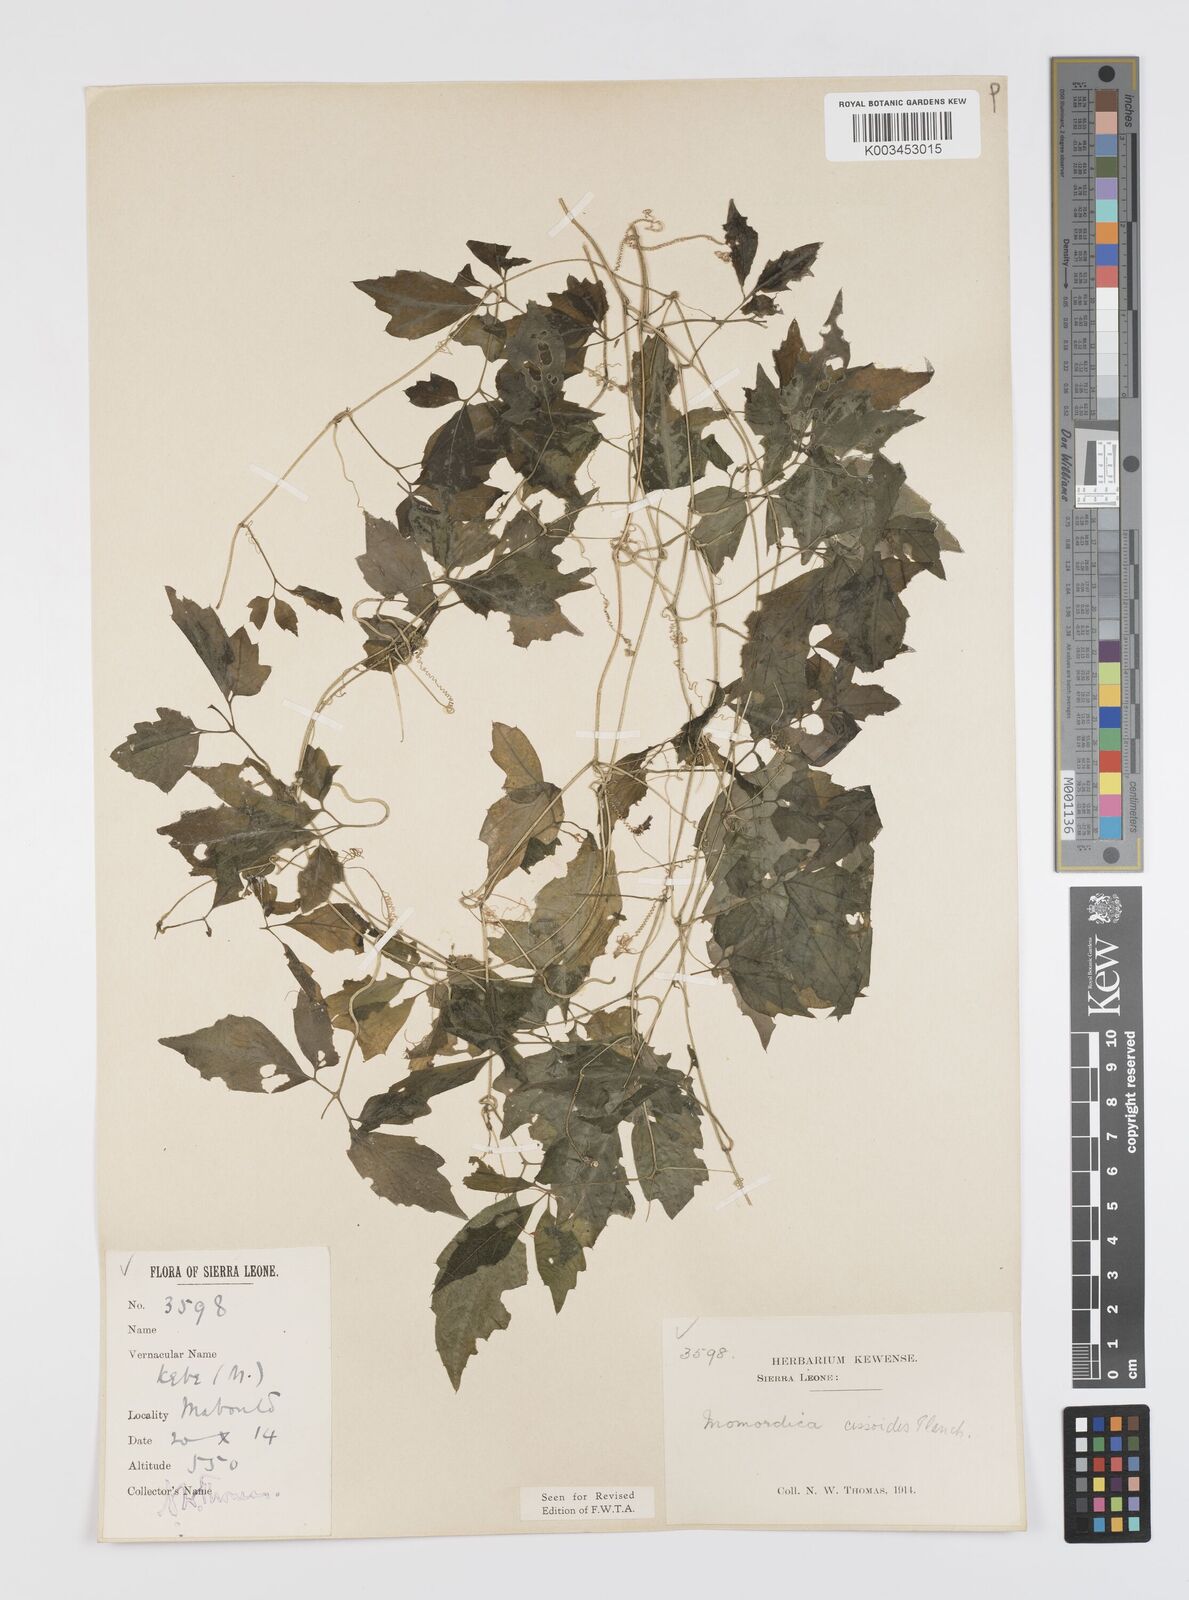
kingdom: Plantae
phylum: Tracheophyta
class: Magnoliopsida
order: Cucurbitales
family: Cucurbitaceae
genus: Momordica
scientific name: Momordica cissoides
